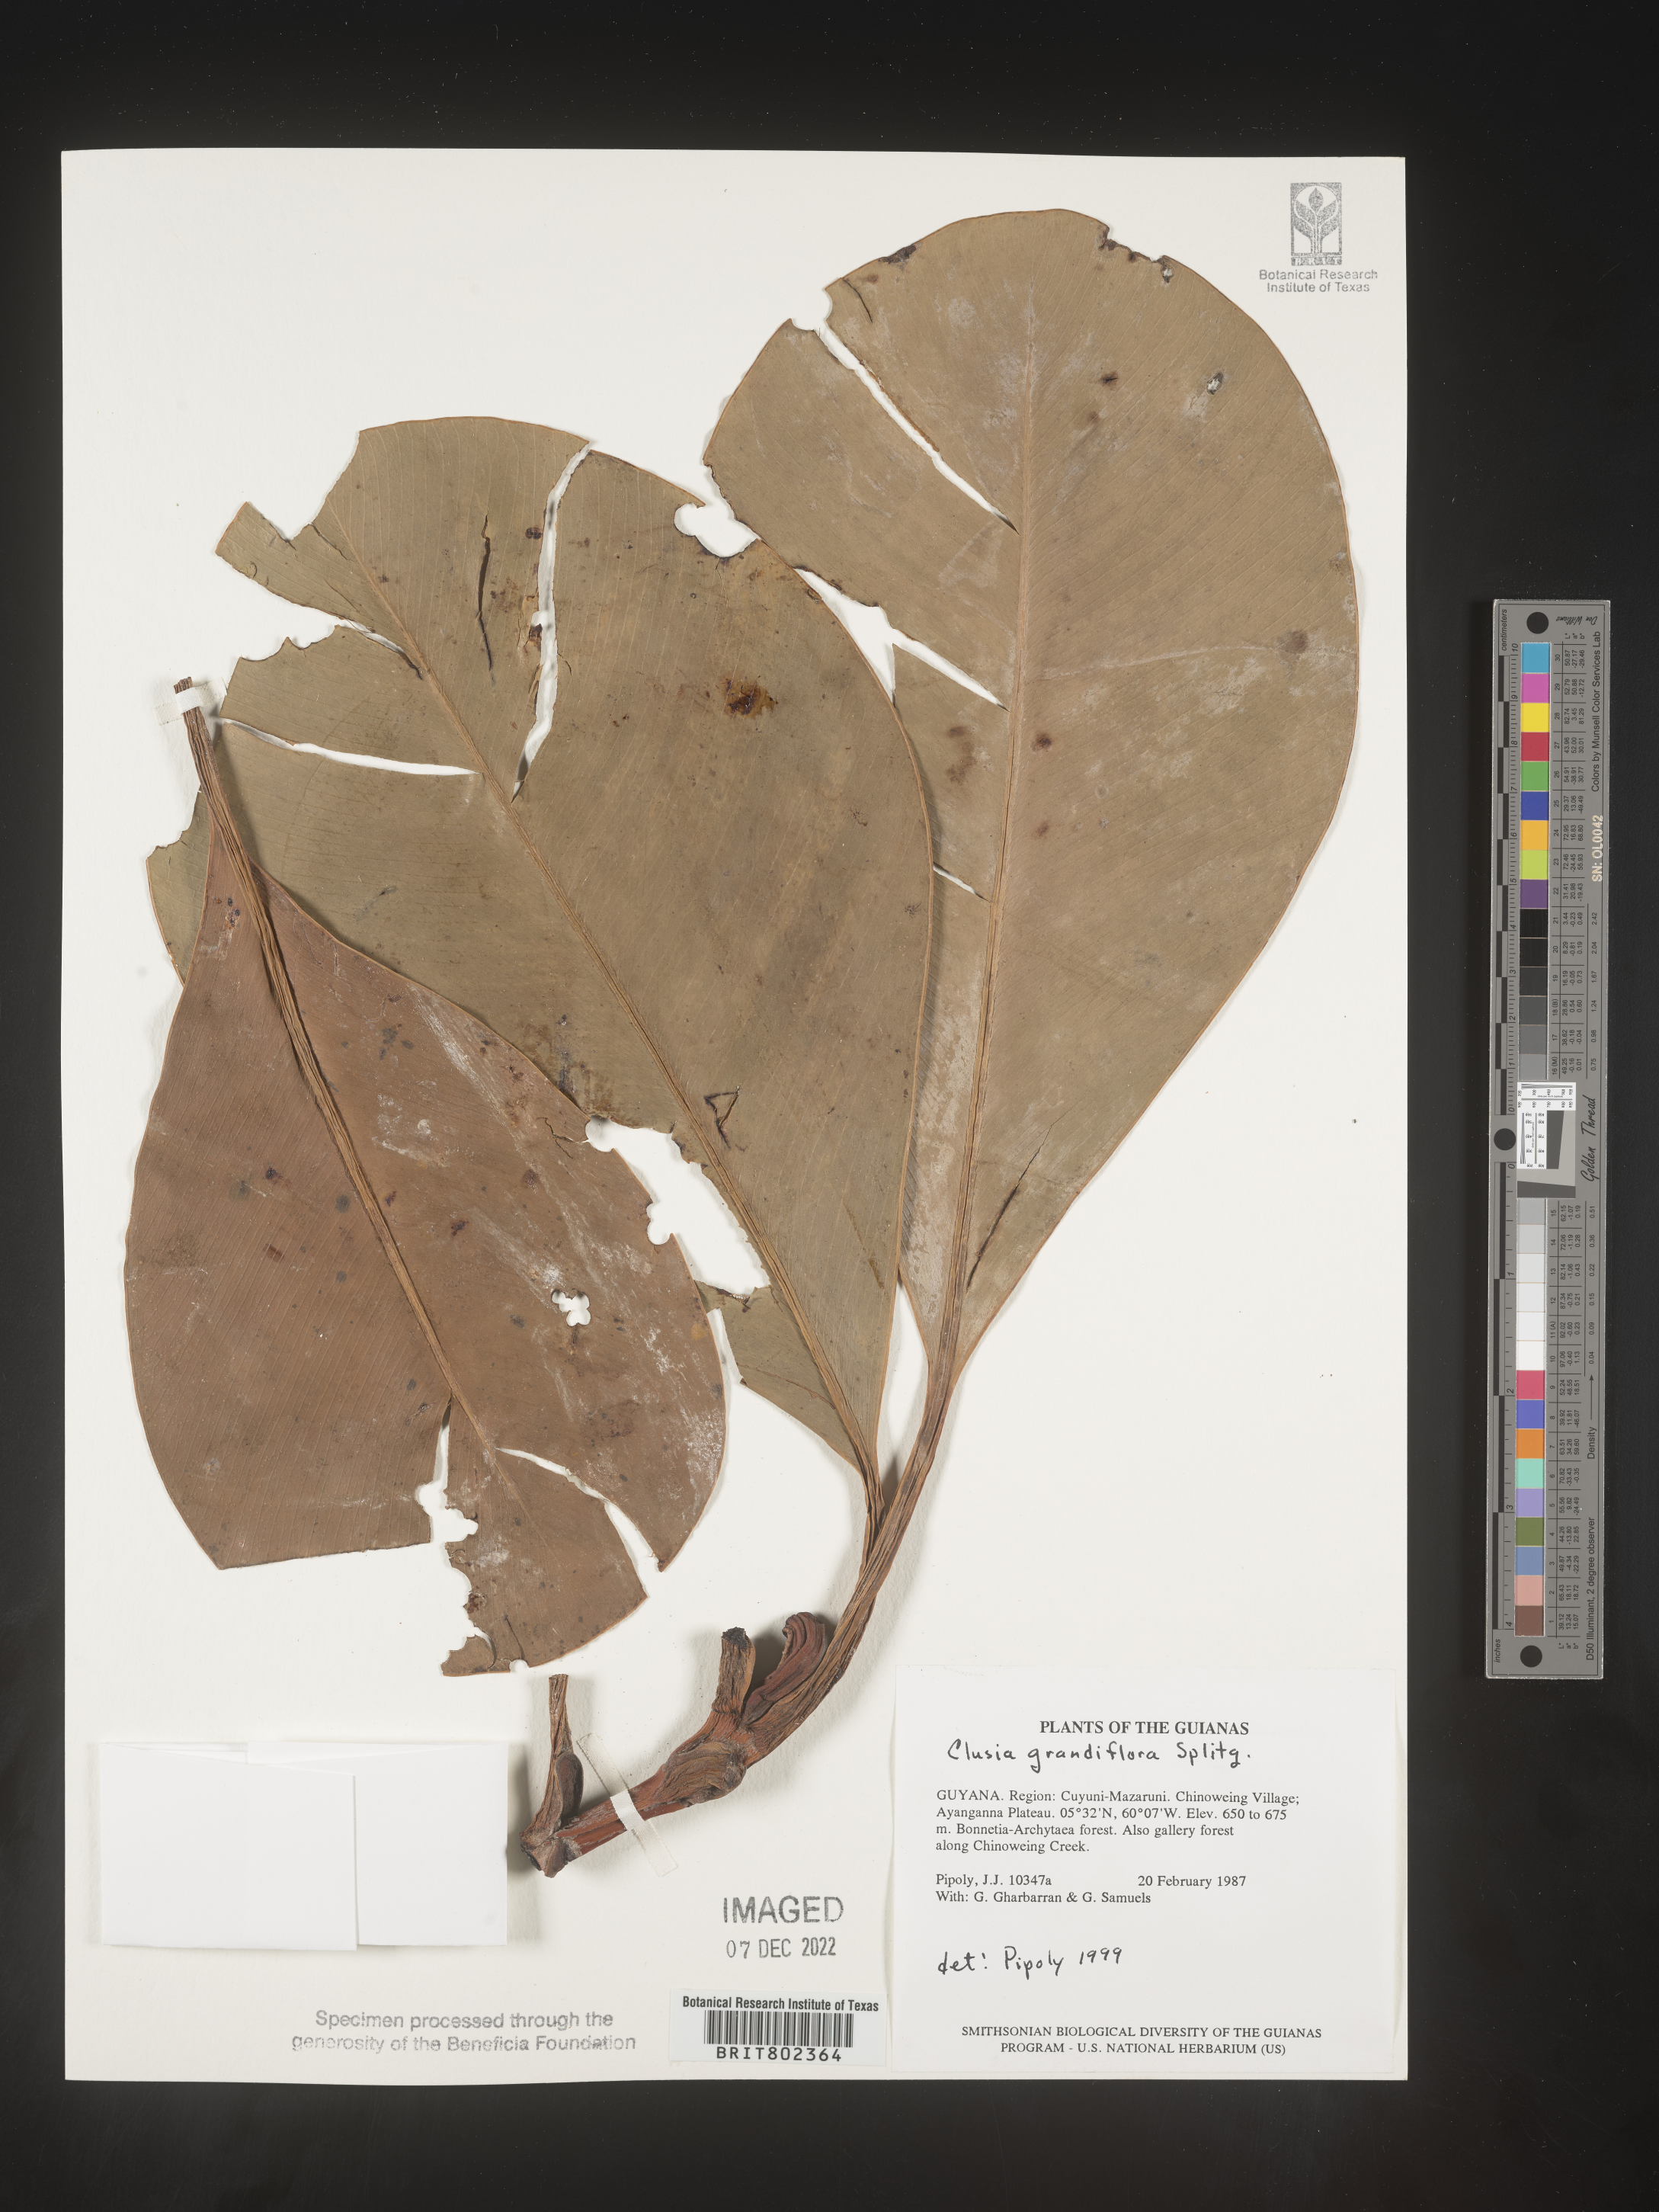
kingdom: Plantae
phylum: Tracheophyta
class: Magnoliopsida
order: Malpighiales
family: Clusiaceae
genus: Clusia
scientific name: Clusia grandiflora
